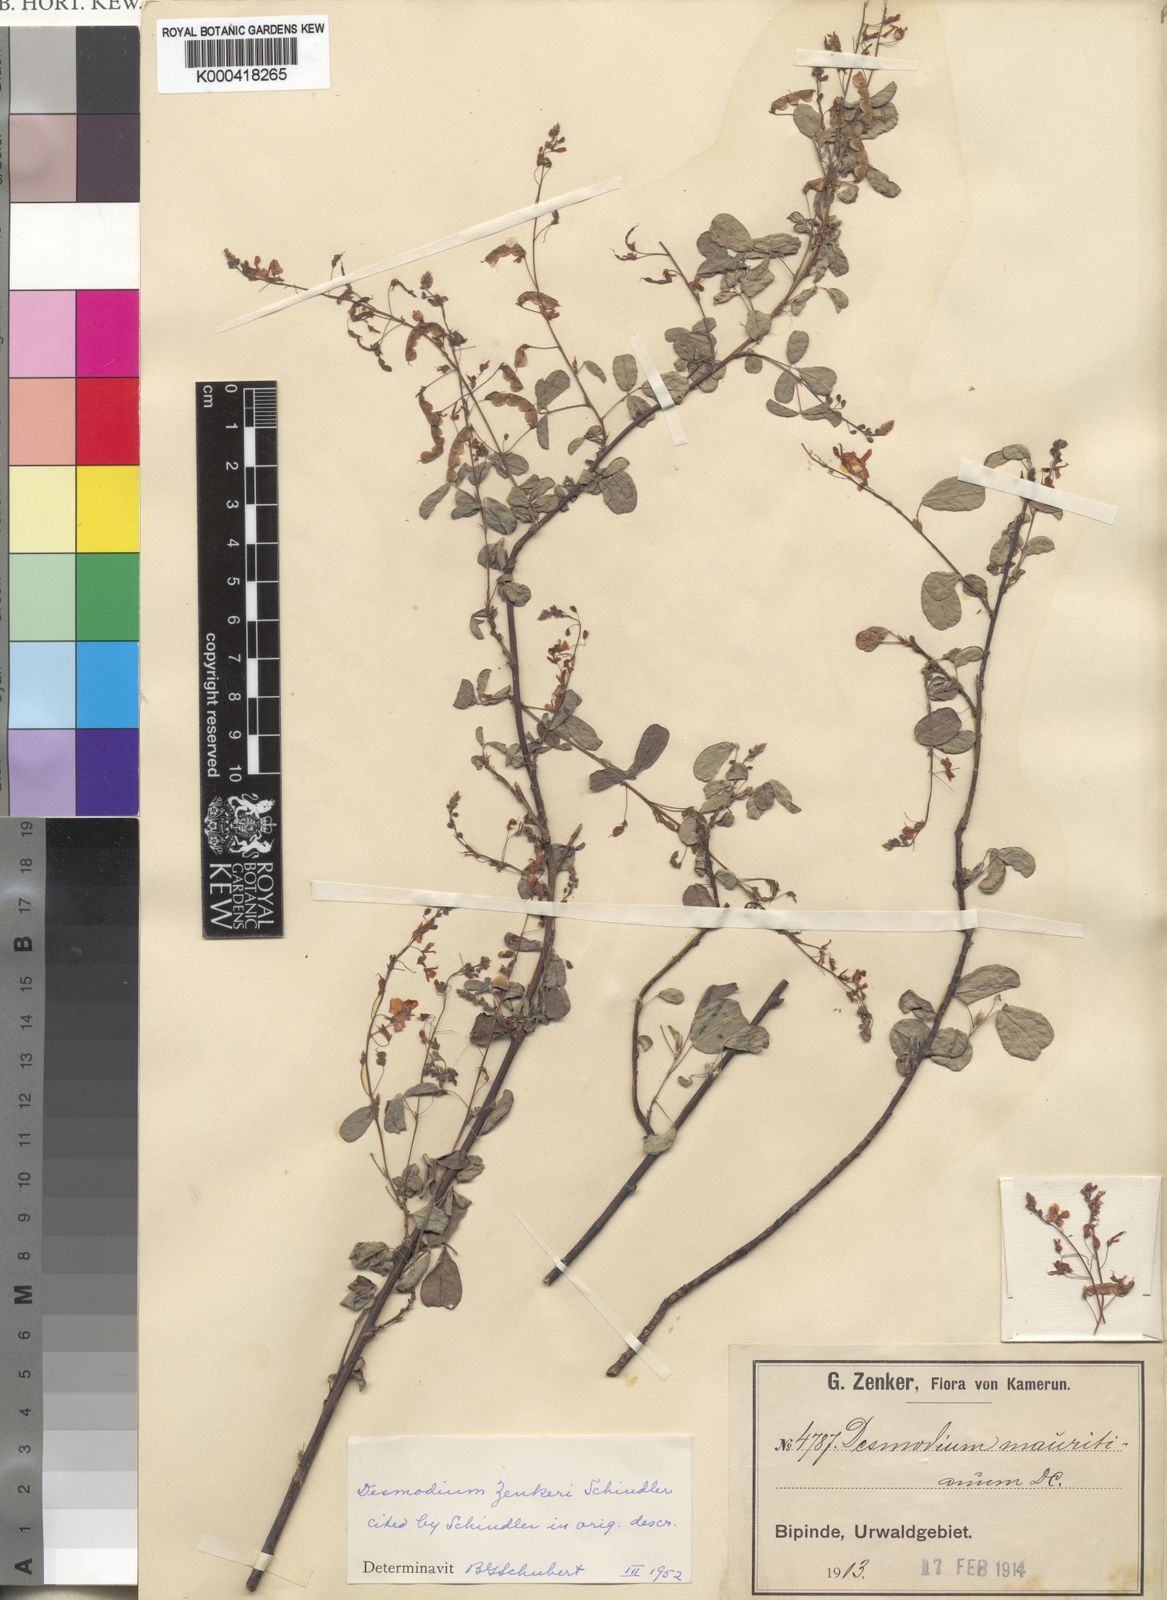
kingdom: Plantae
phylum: Tracheophyta
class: Magnoliopsida
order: Fabales
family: Fabaceae
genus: Desmodium
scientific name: Desmodium
